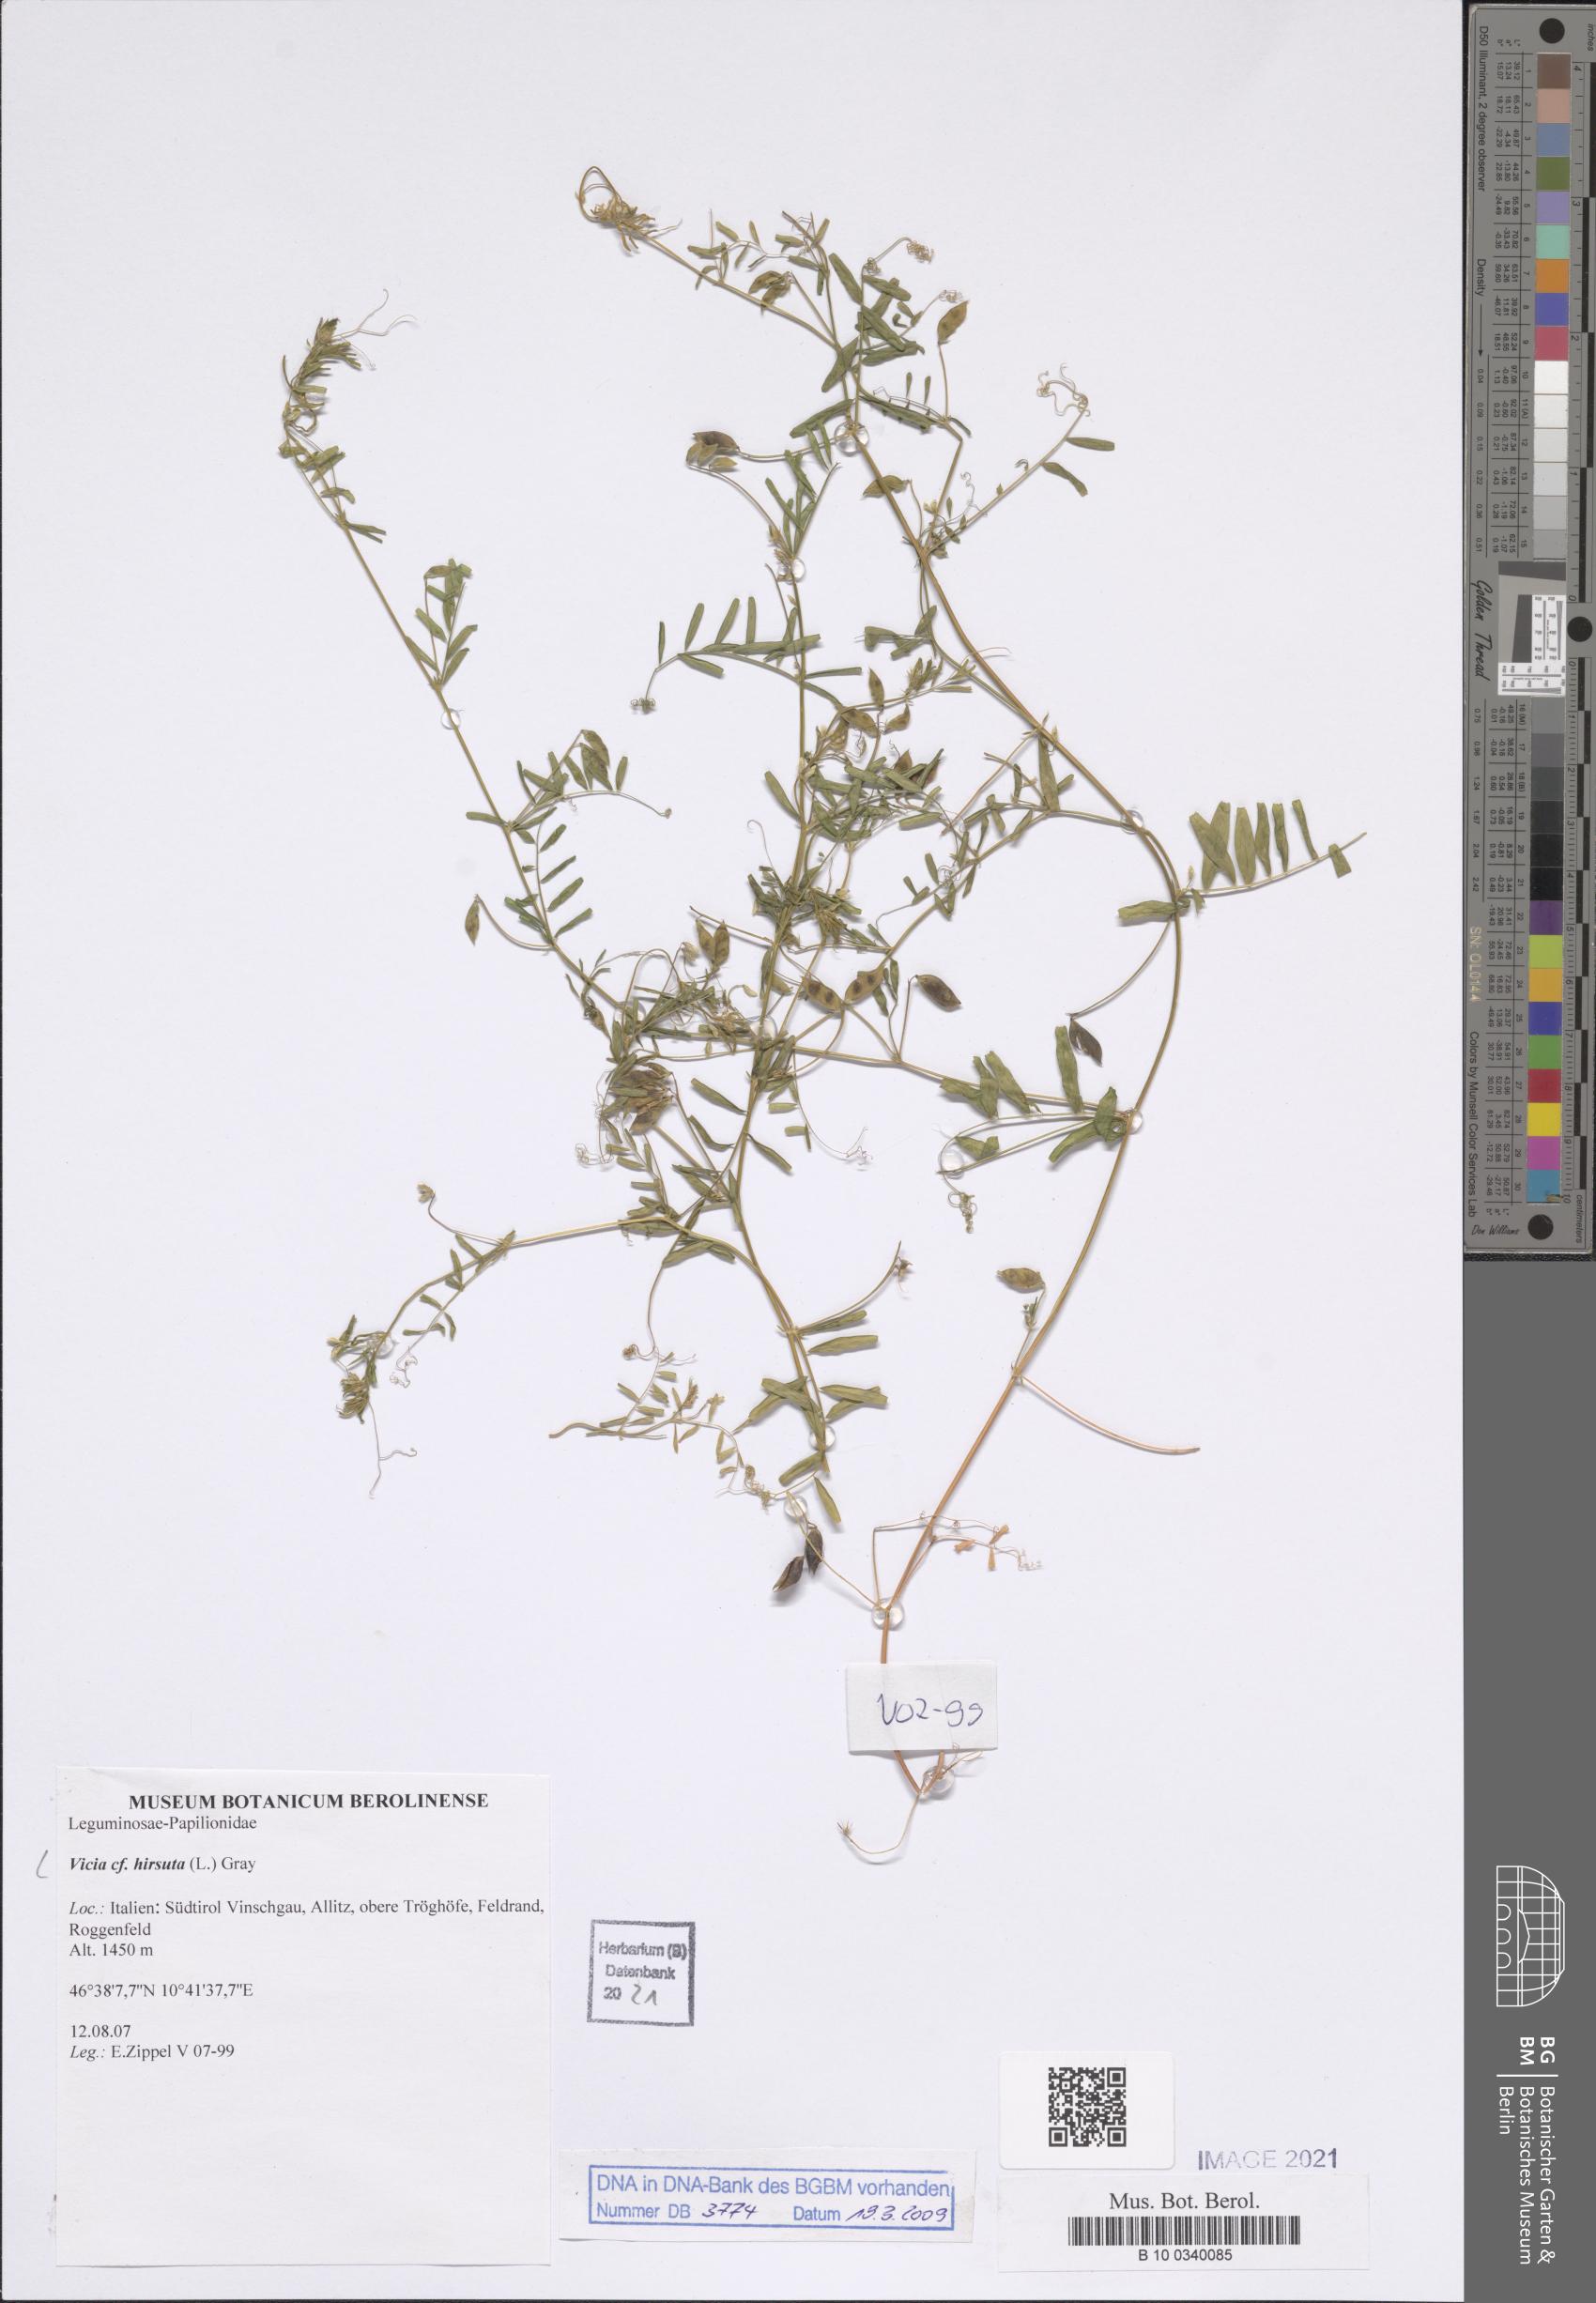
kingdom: Plantae
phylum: Tracheophyta
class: Magnoliopsida
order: Fabales
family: Fabaceae
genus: Vicia
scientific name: Vicia hirsuta
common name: Tiny vetch
